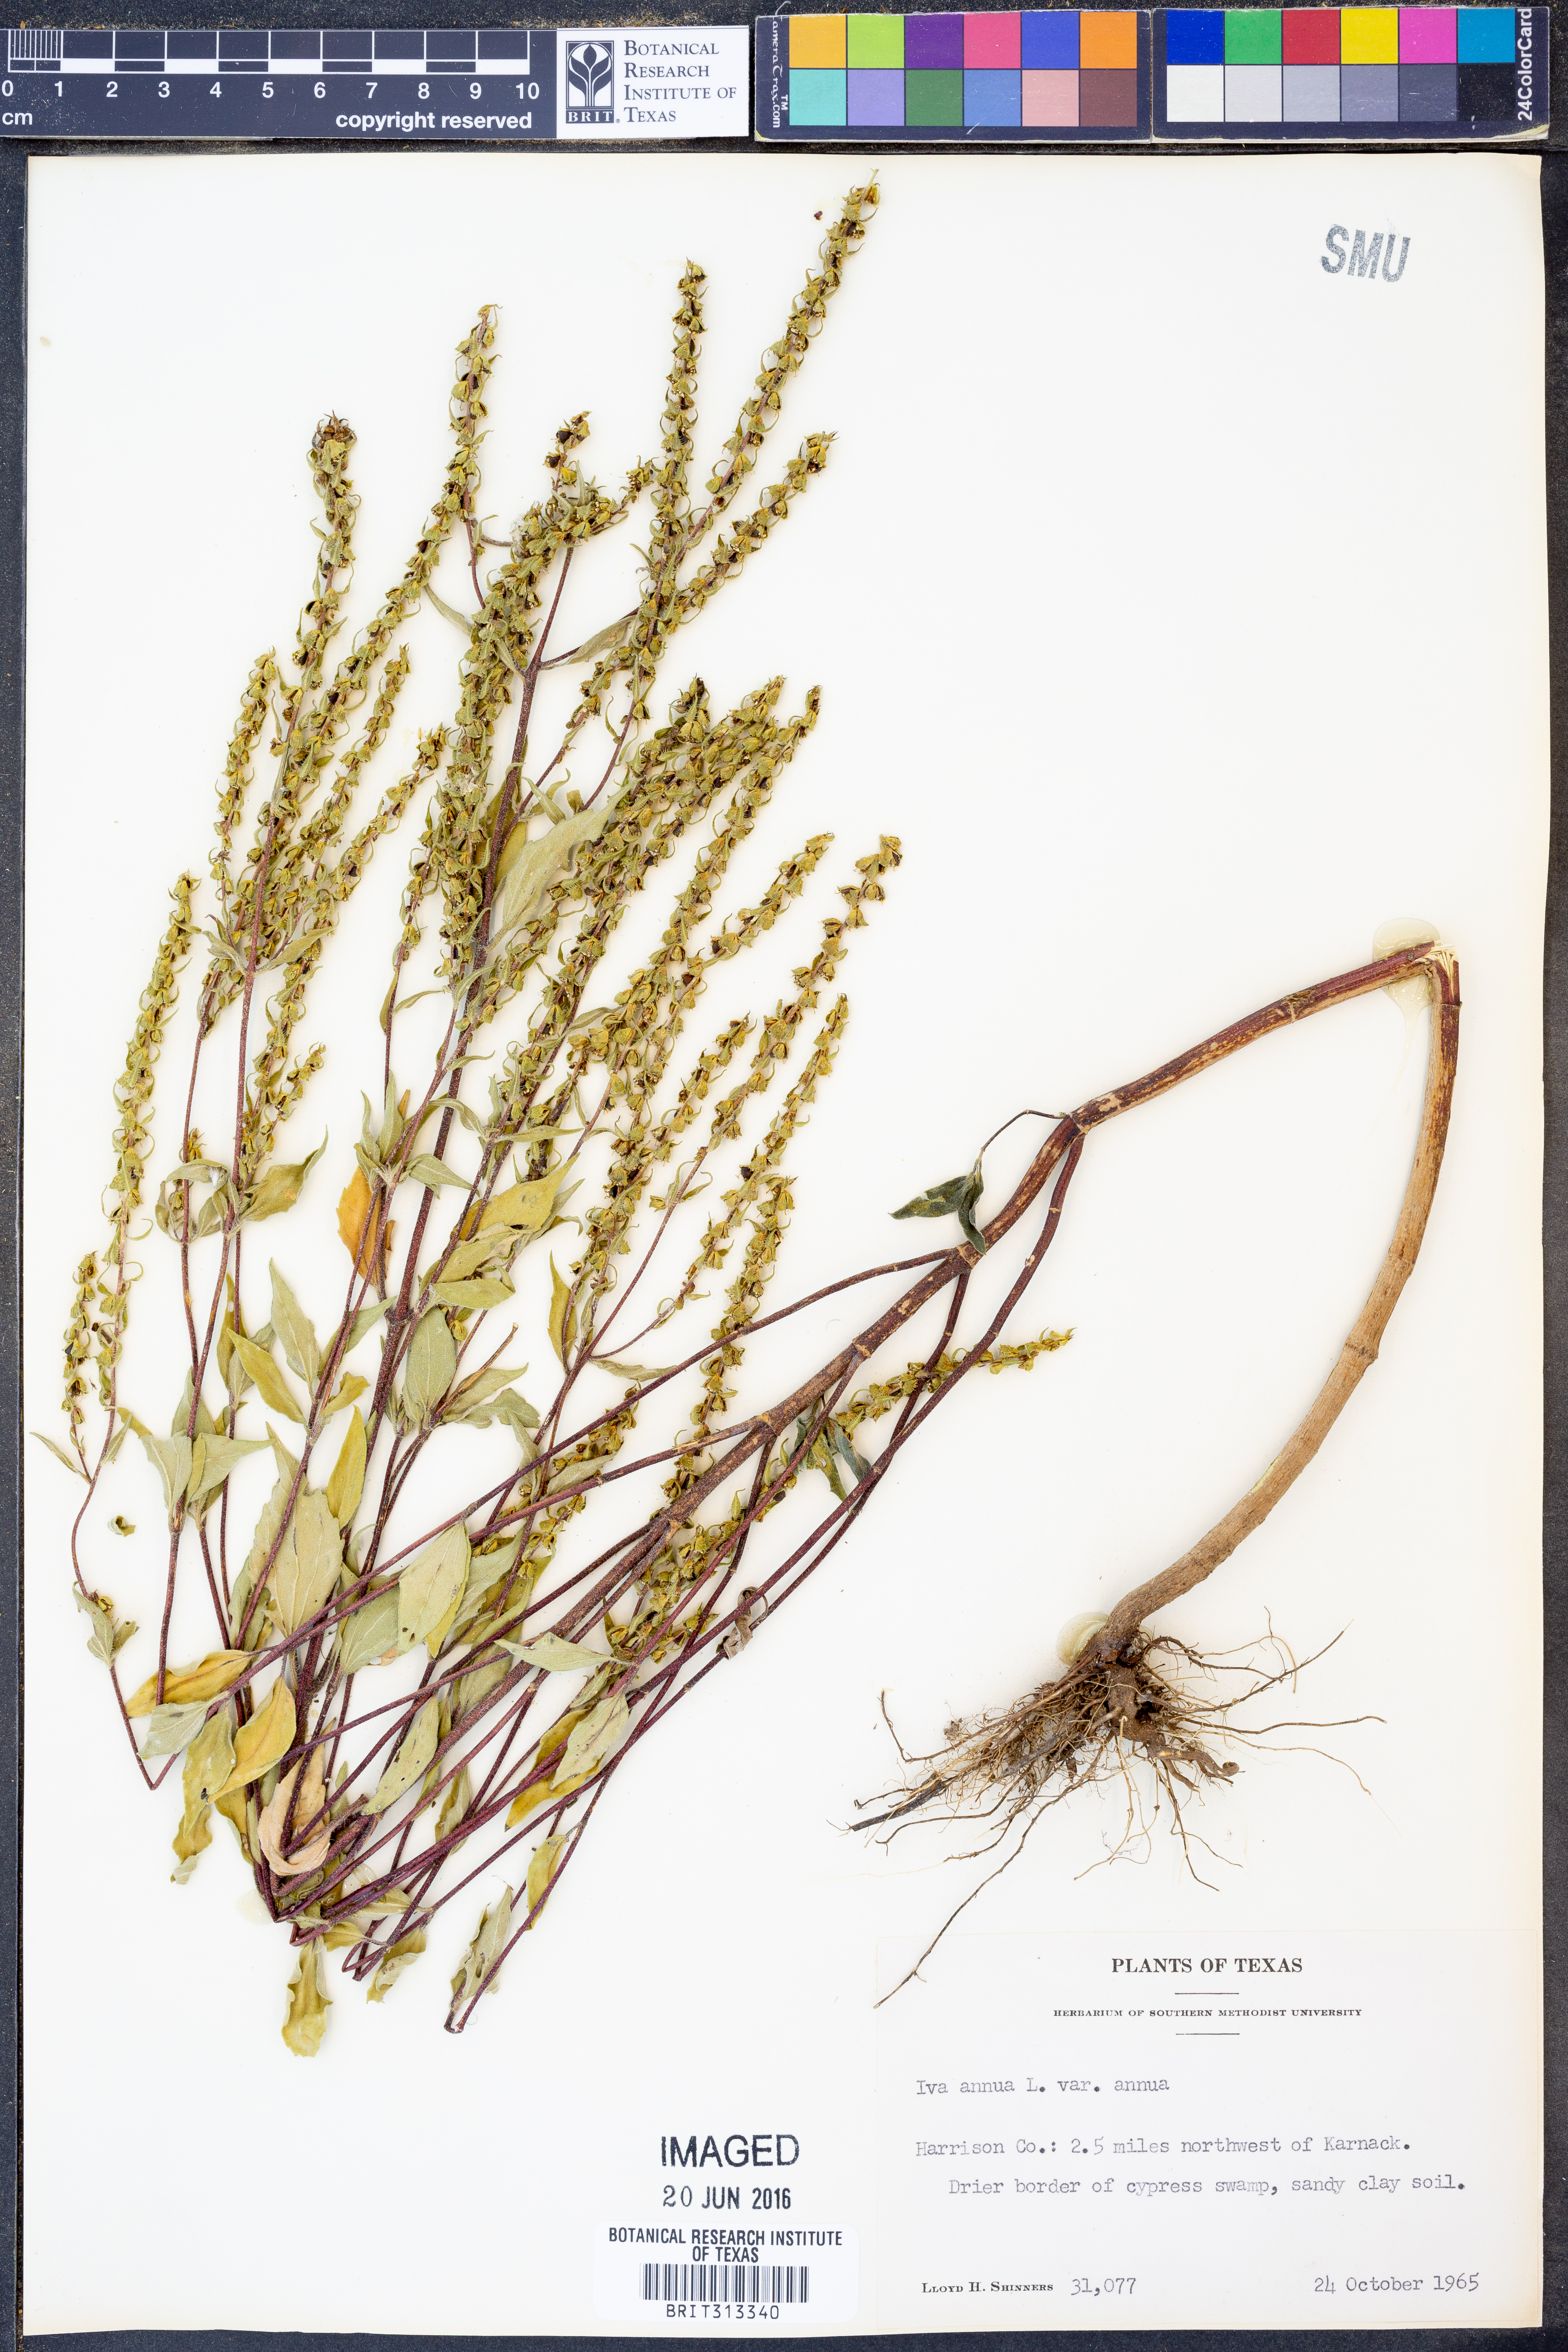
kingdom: Plantae
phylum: Tracheophyta
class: Magnoliopsida
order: Asterales
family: Asteraceae
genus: Iva
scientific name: Iva annua
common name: Marsh-elder
